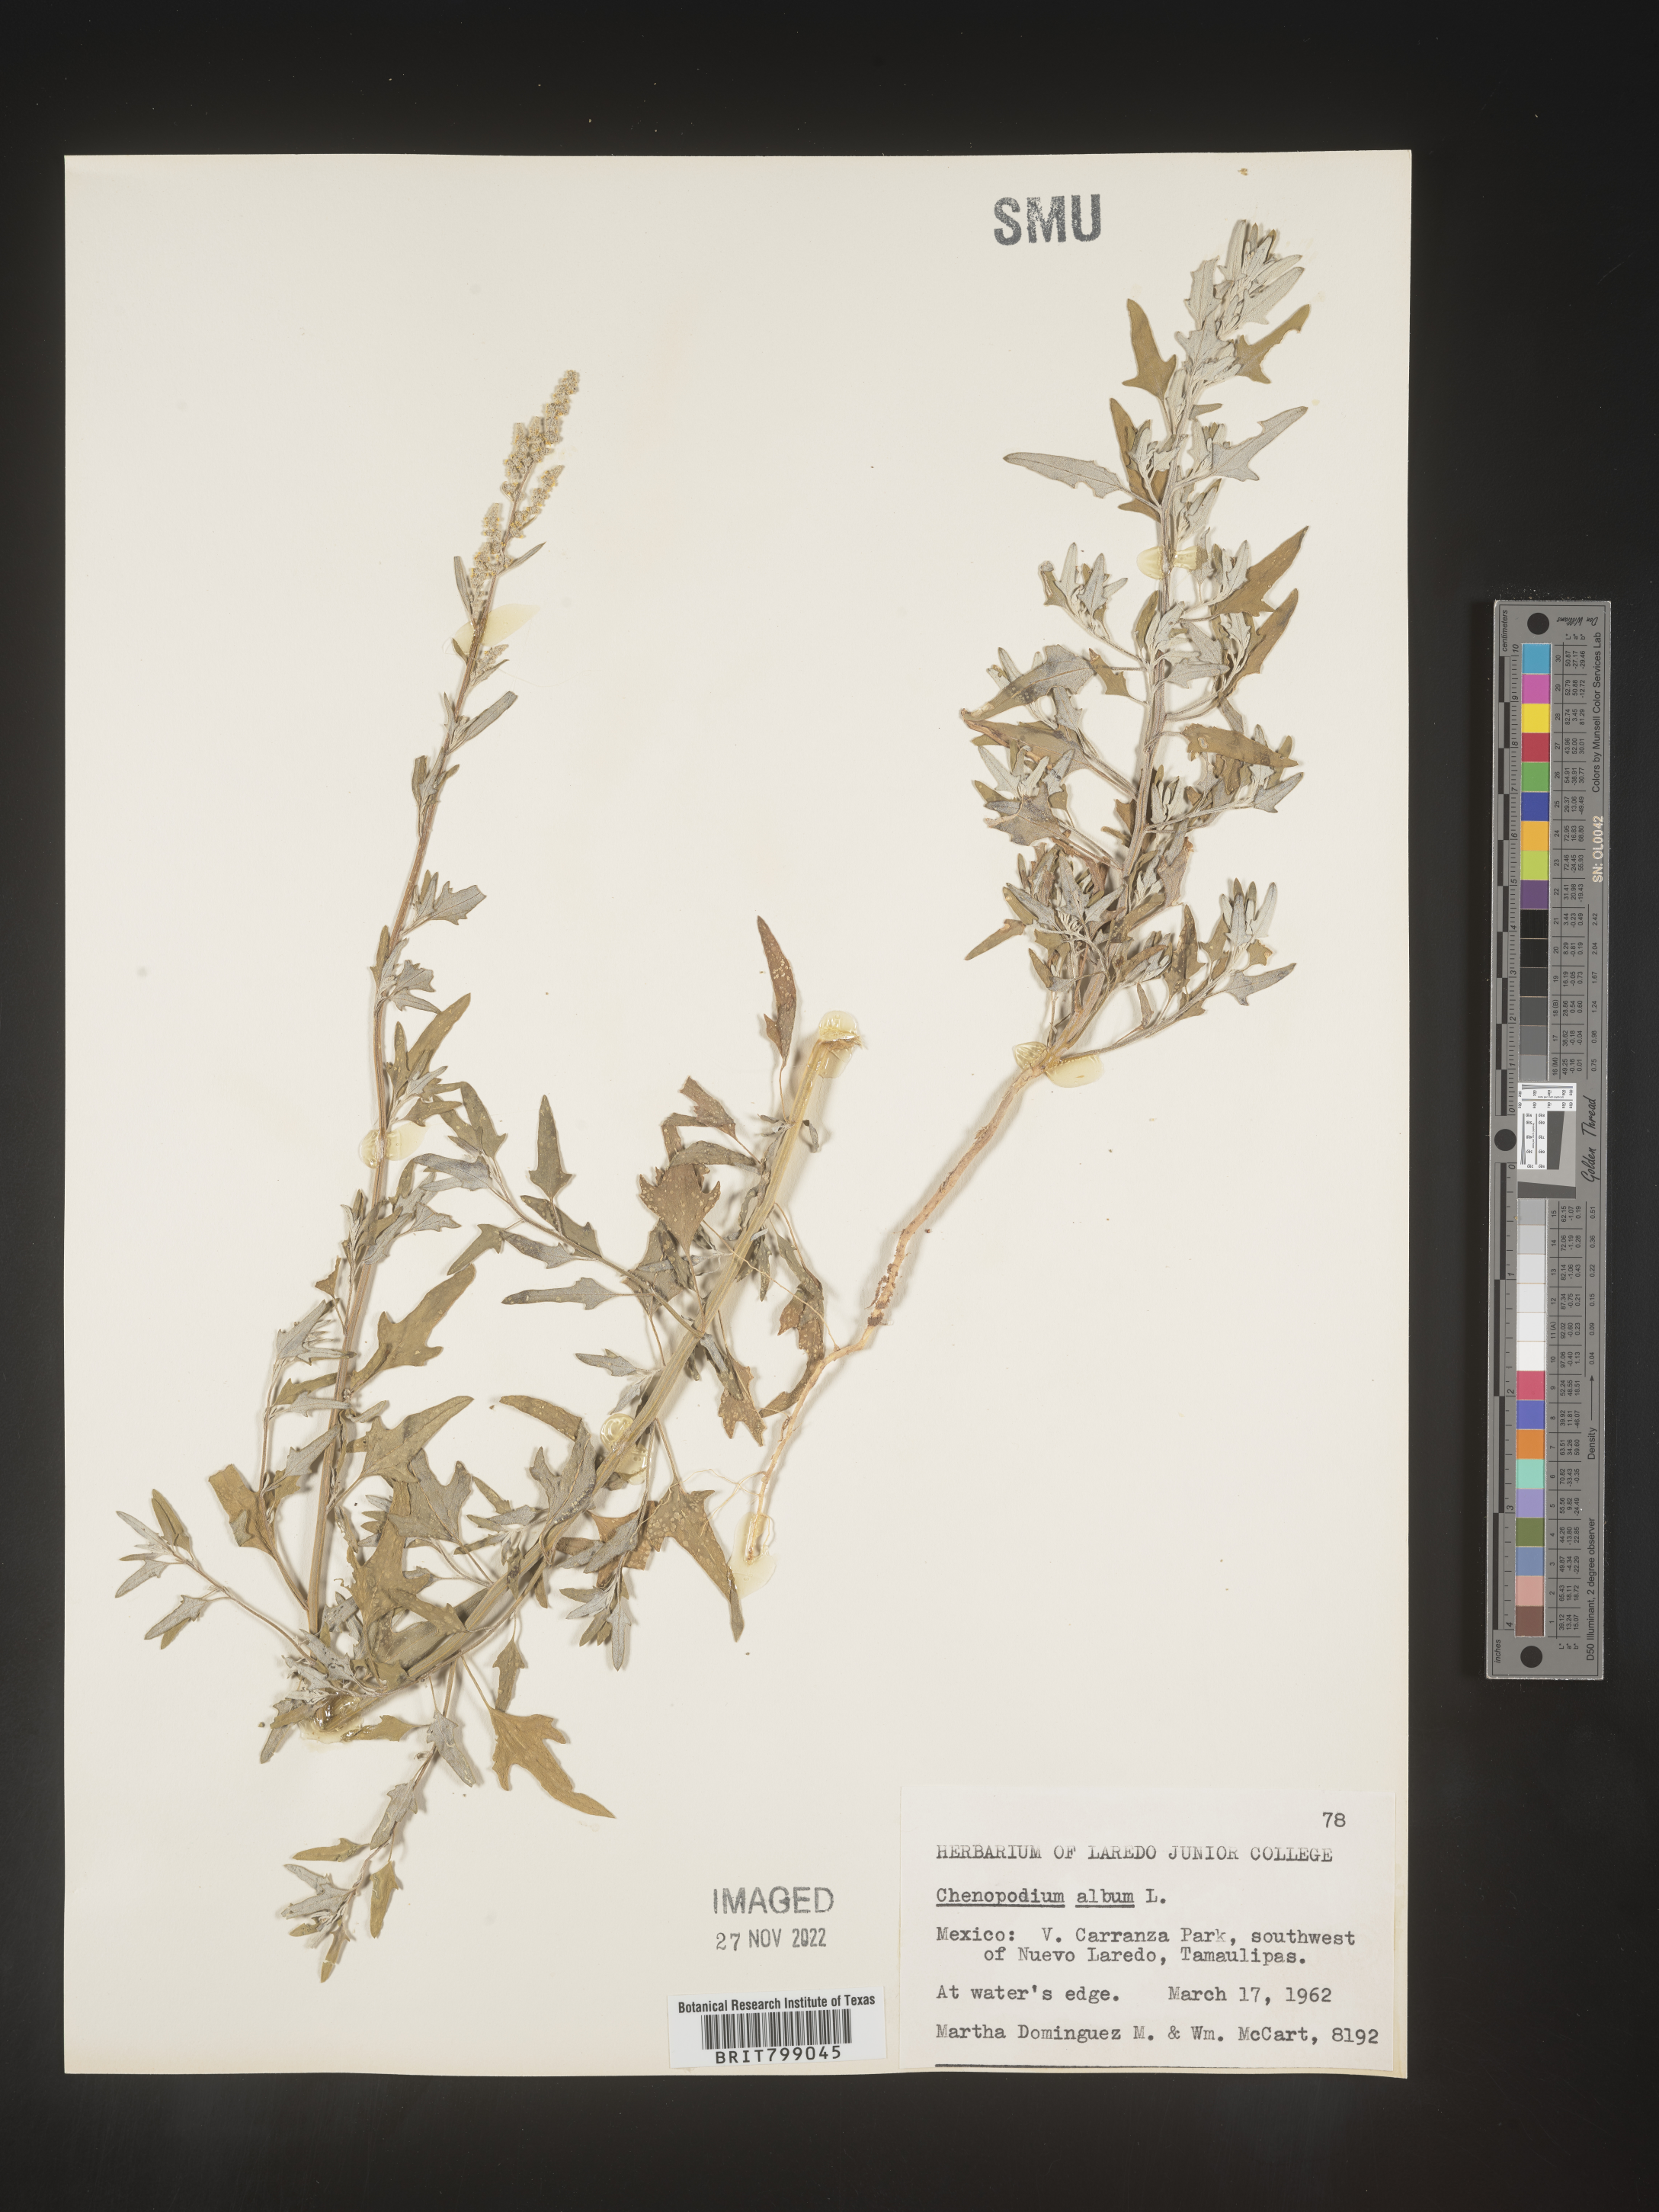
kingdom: Plantae
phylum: Tracheophyta
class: Magnoliopsida
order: Caryophyllales
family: Amaranthaceae
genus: Chenopodium
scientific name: Chenopodium
